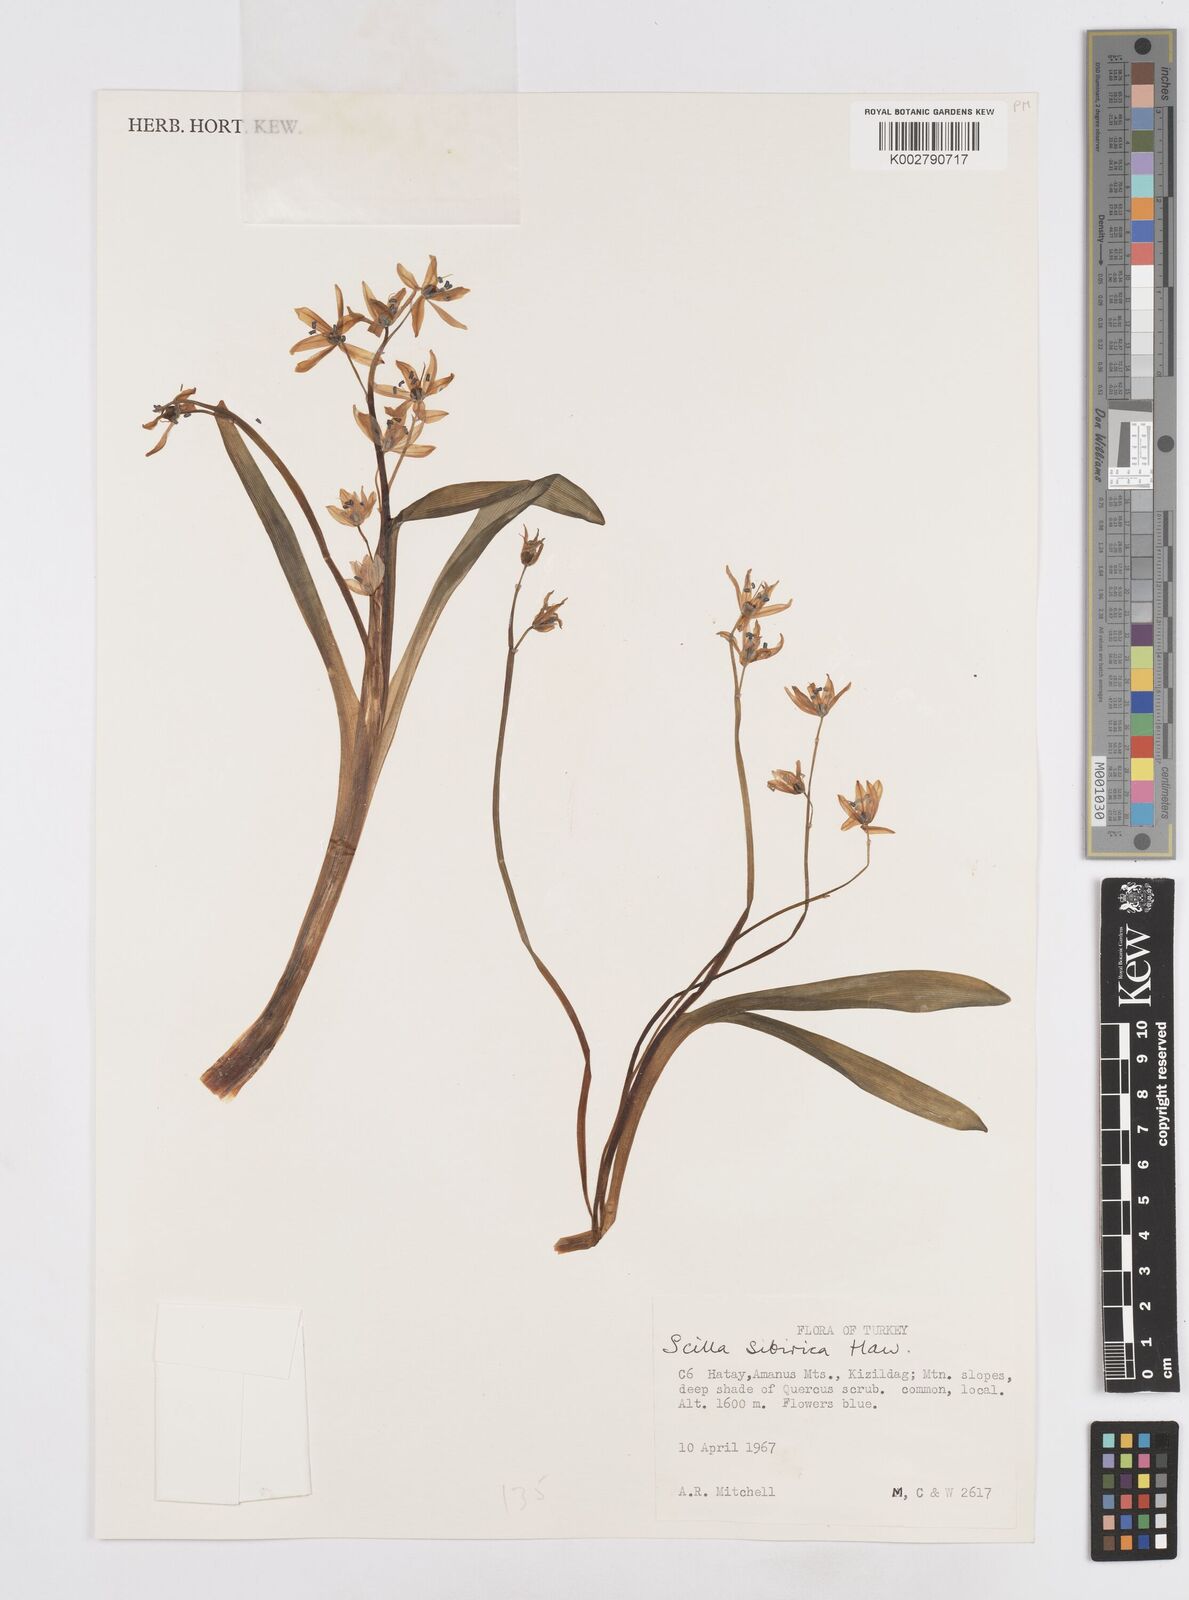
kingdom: Plantae
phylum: Tracheophyta
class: Liliopsida
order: Asparagales
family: Asparagaceae
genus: Scilla
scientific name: Scilla siberica
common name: Siberian squill
